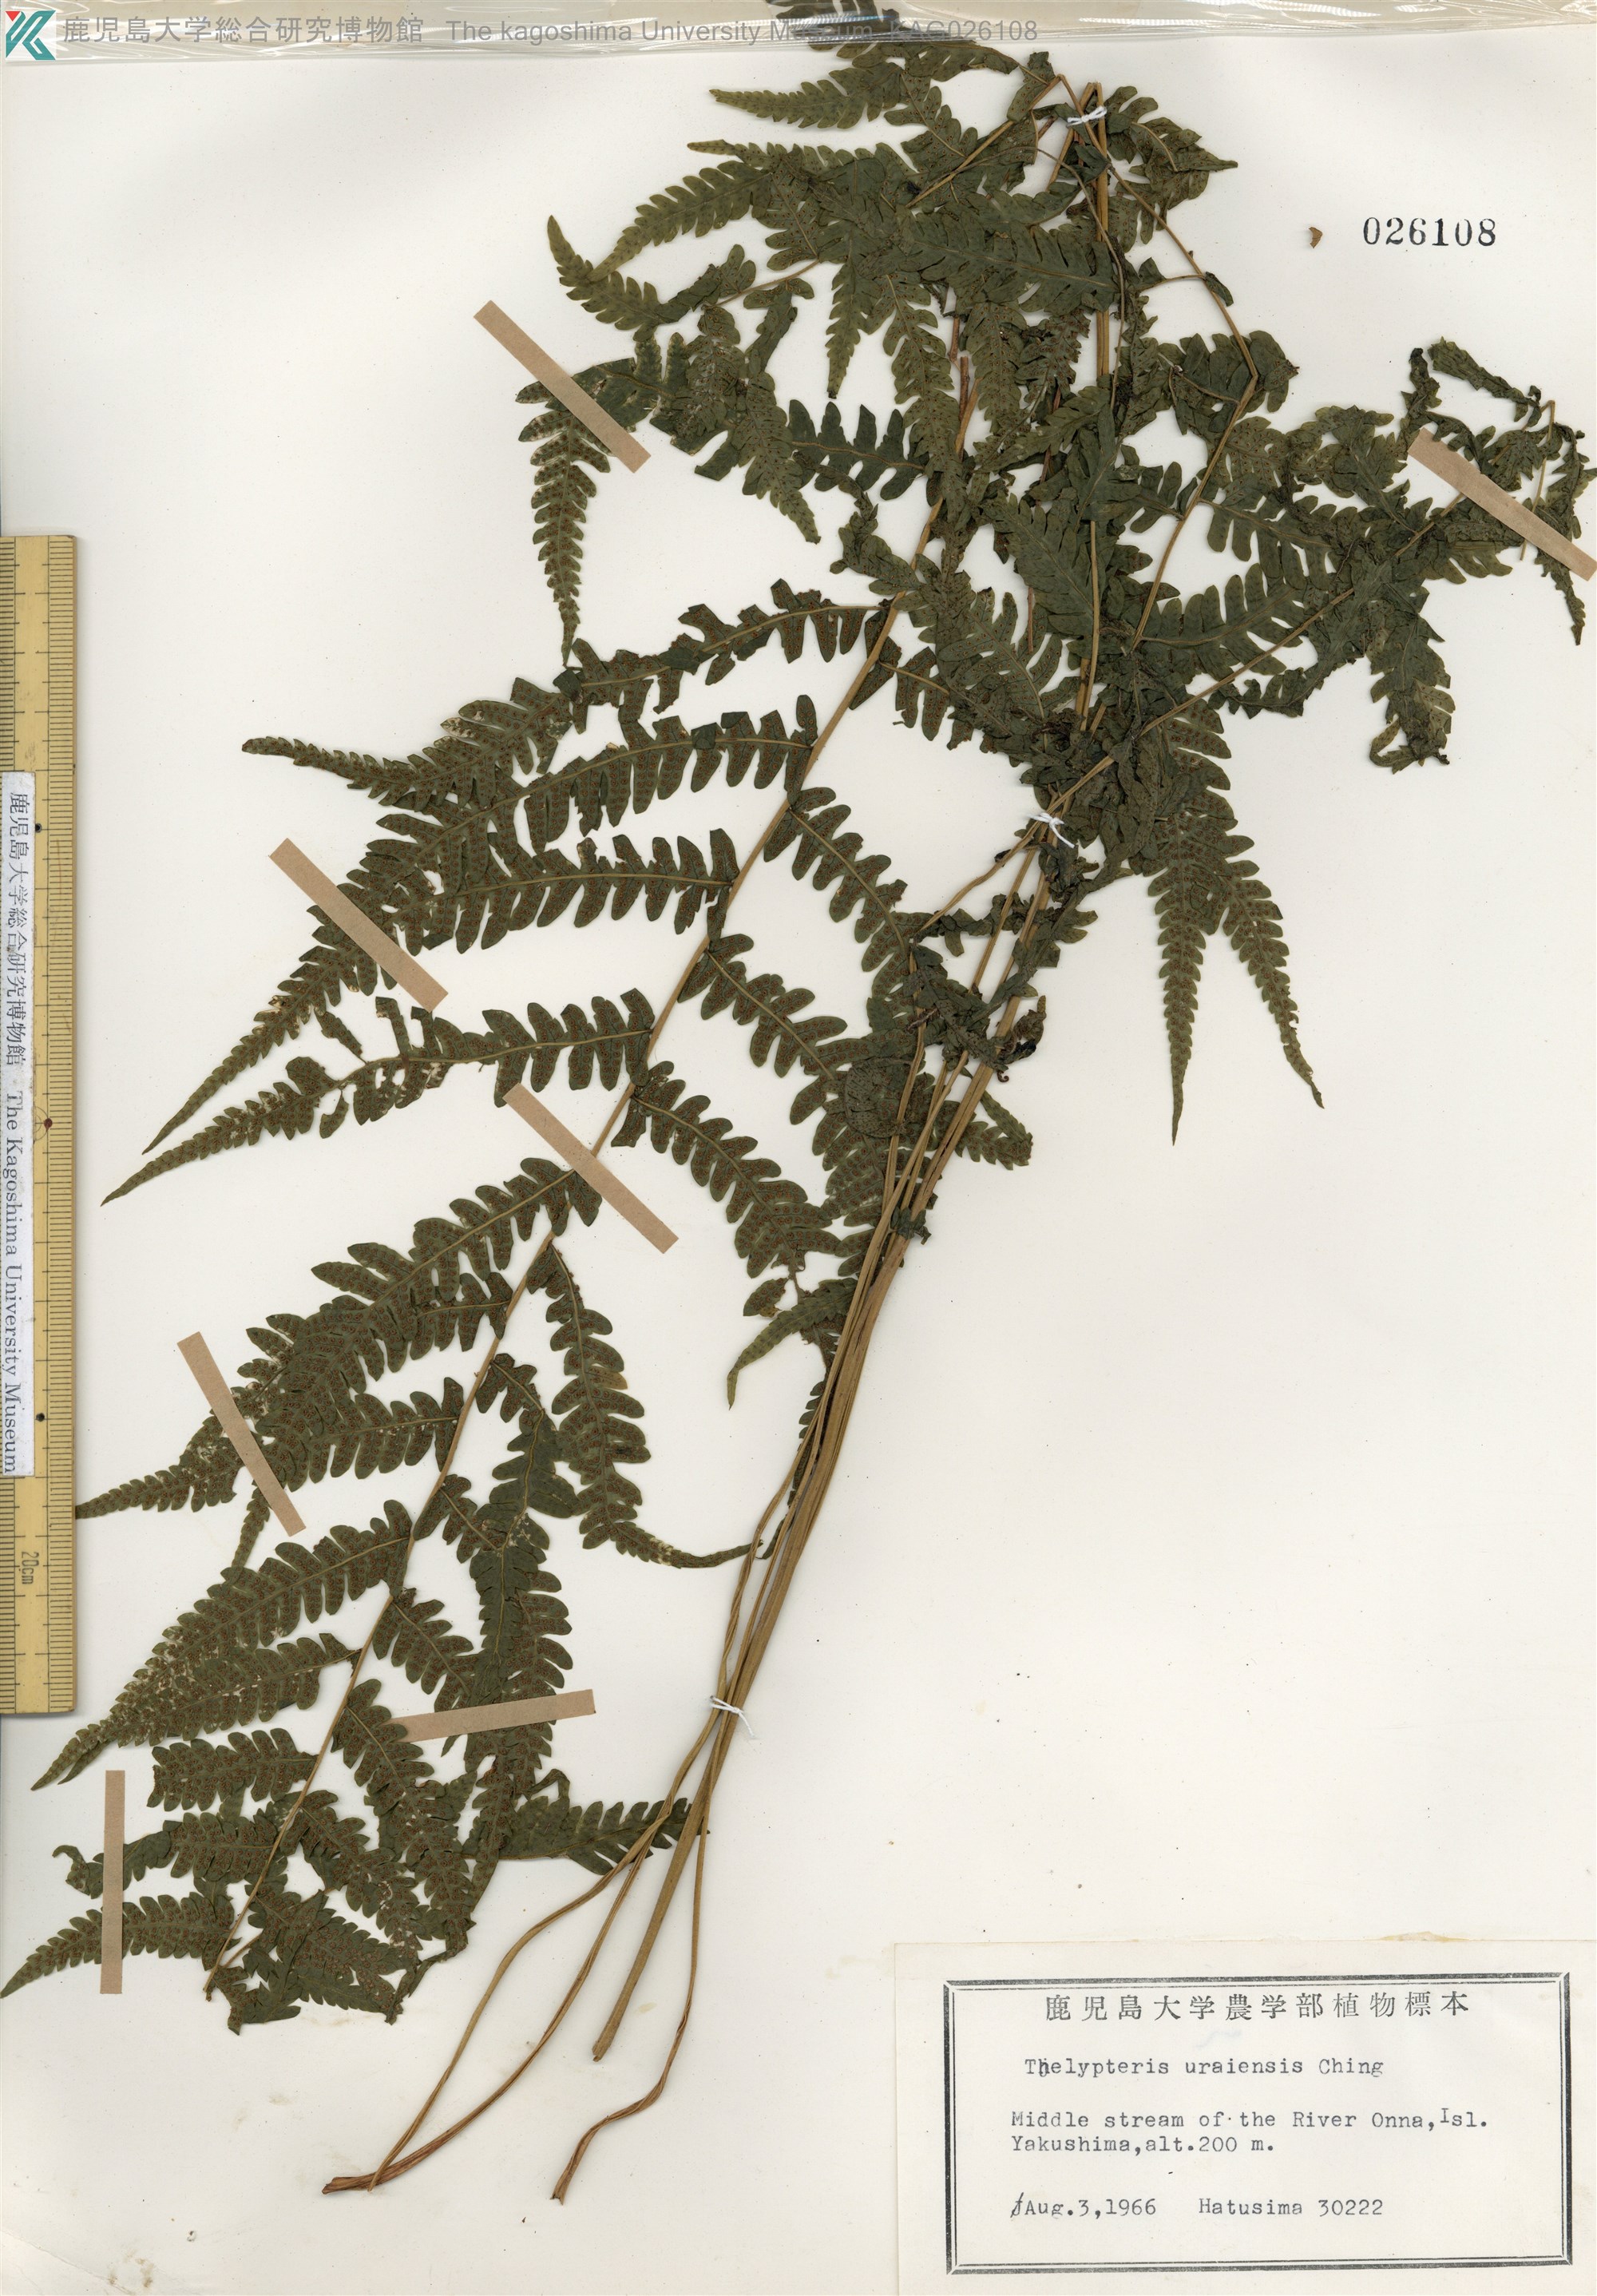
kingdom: Plantae
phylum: Tracheophyta
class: Polypodiopsida
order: Polypodiales
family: Thelypteridaceae
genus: Metathelypteris
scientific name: Metathelypteris uraiensis
